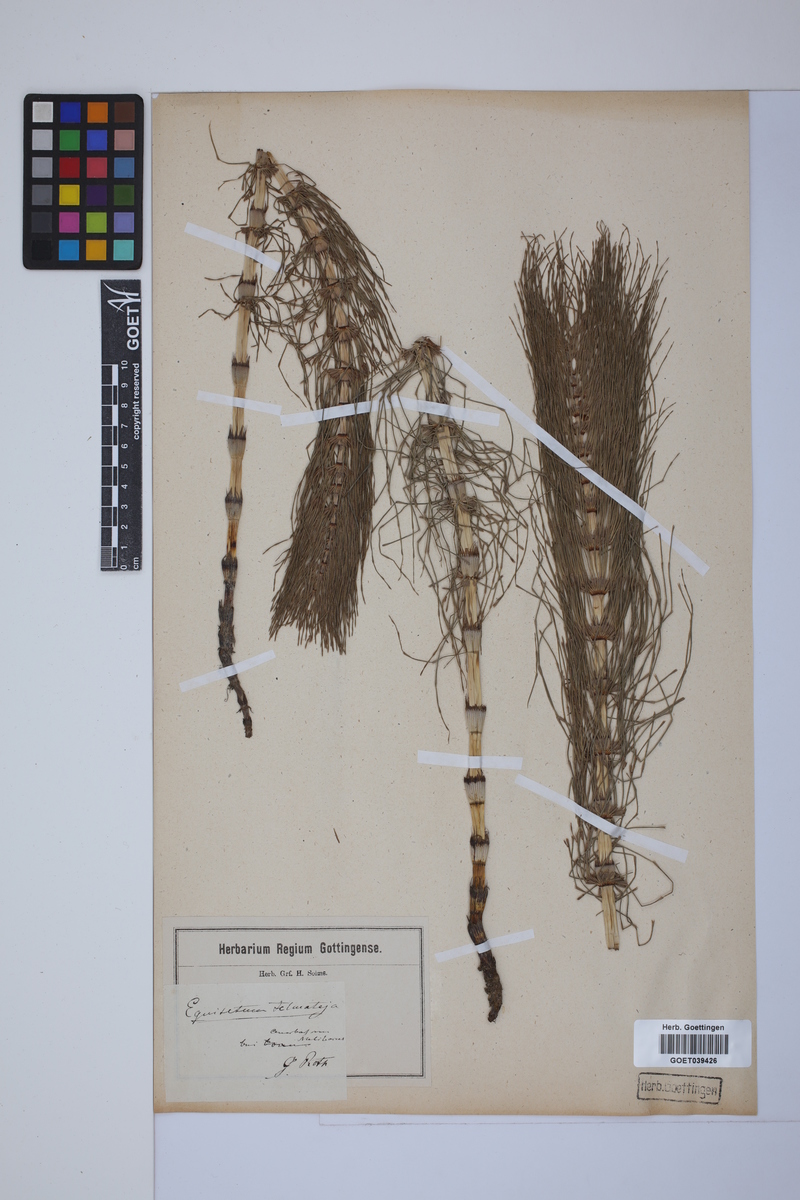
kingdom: Plantae
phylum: Tracheophyta
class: Polypodiopsida
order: Equisetales
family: Equisetaceae
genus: Equisetum
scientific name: Equisetum telmateia
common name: Great horsetail
